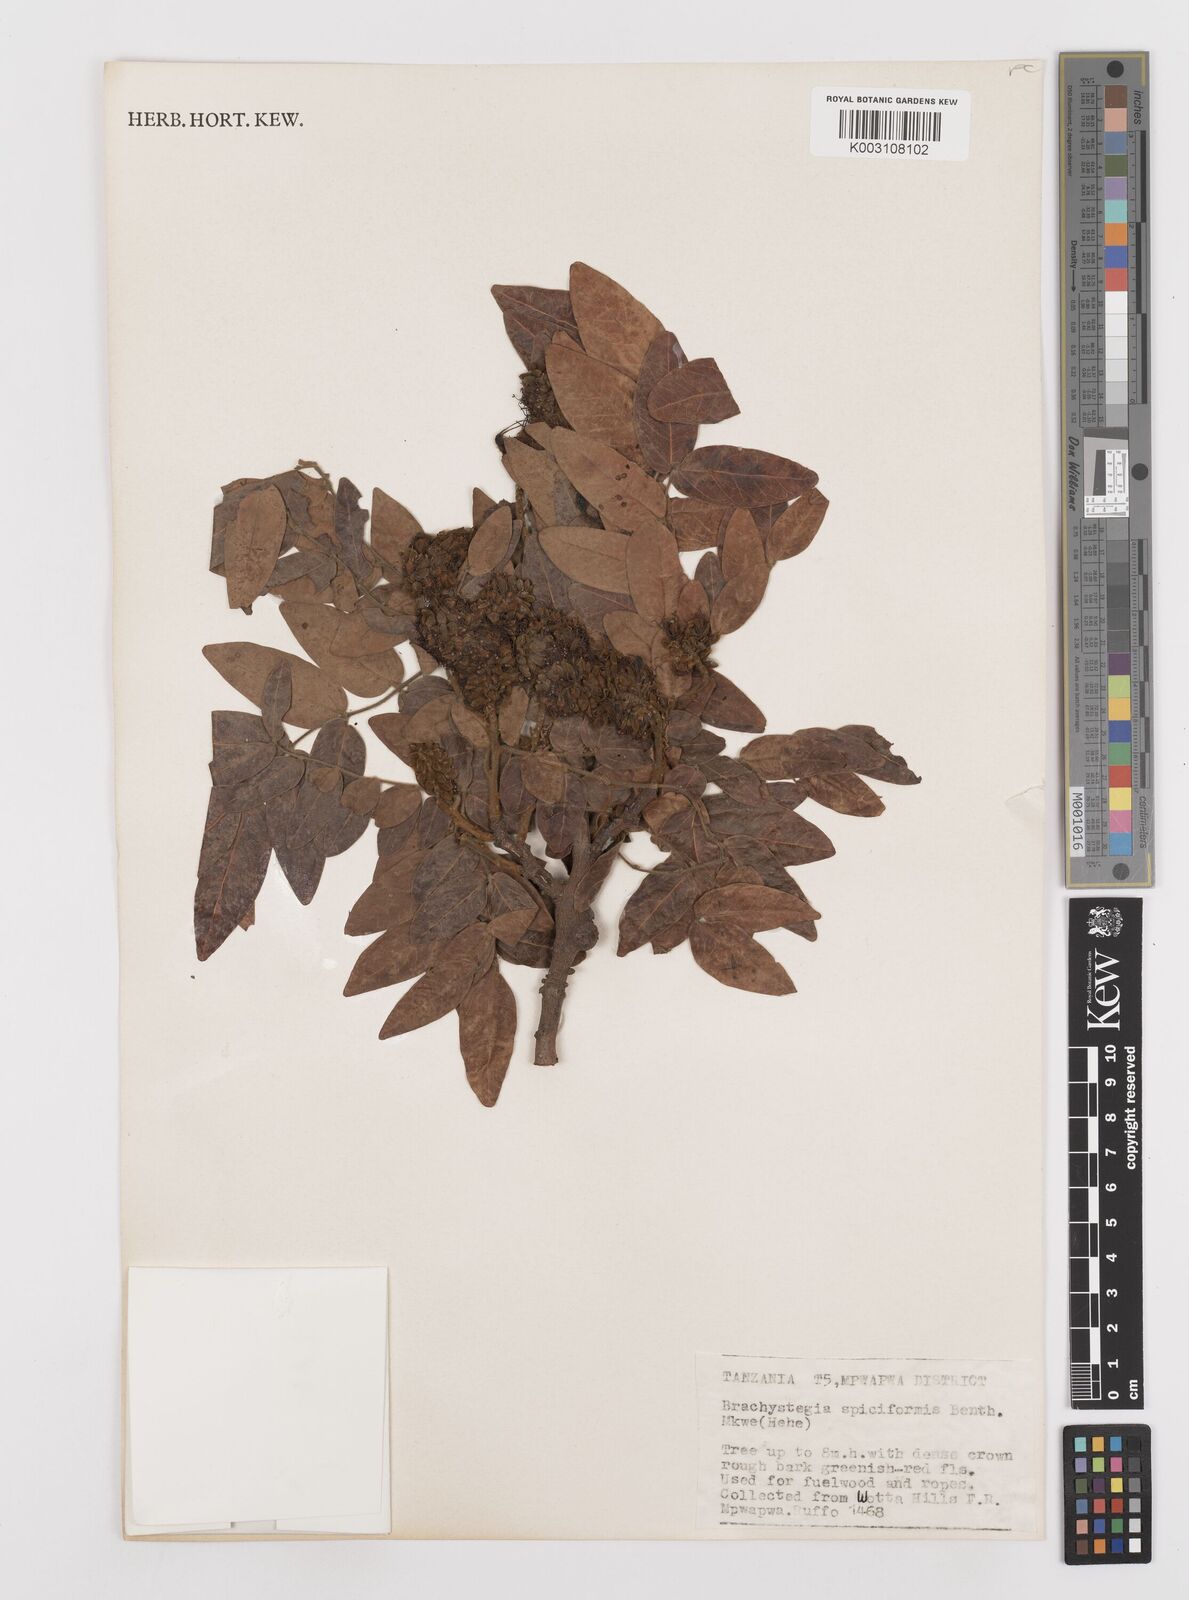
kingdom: Plantae
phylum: Tracheophyta
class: Magnoliopsida
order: Fabales
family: Fabaceae
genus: Brachystegia
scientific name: Brachystegia spiciformis
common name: Zebrawood
